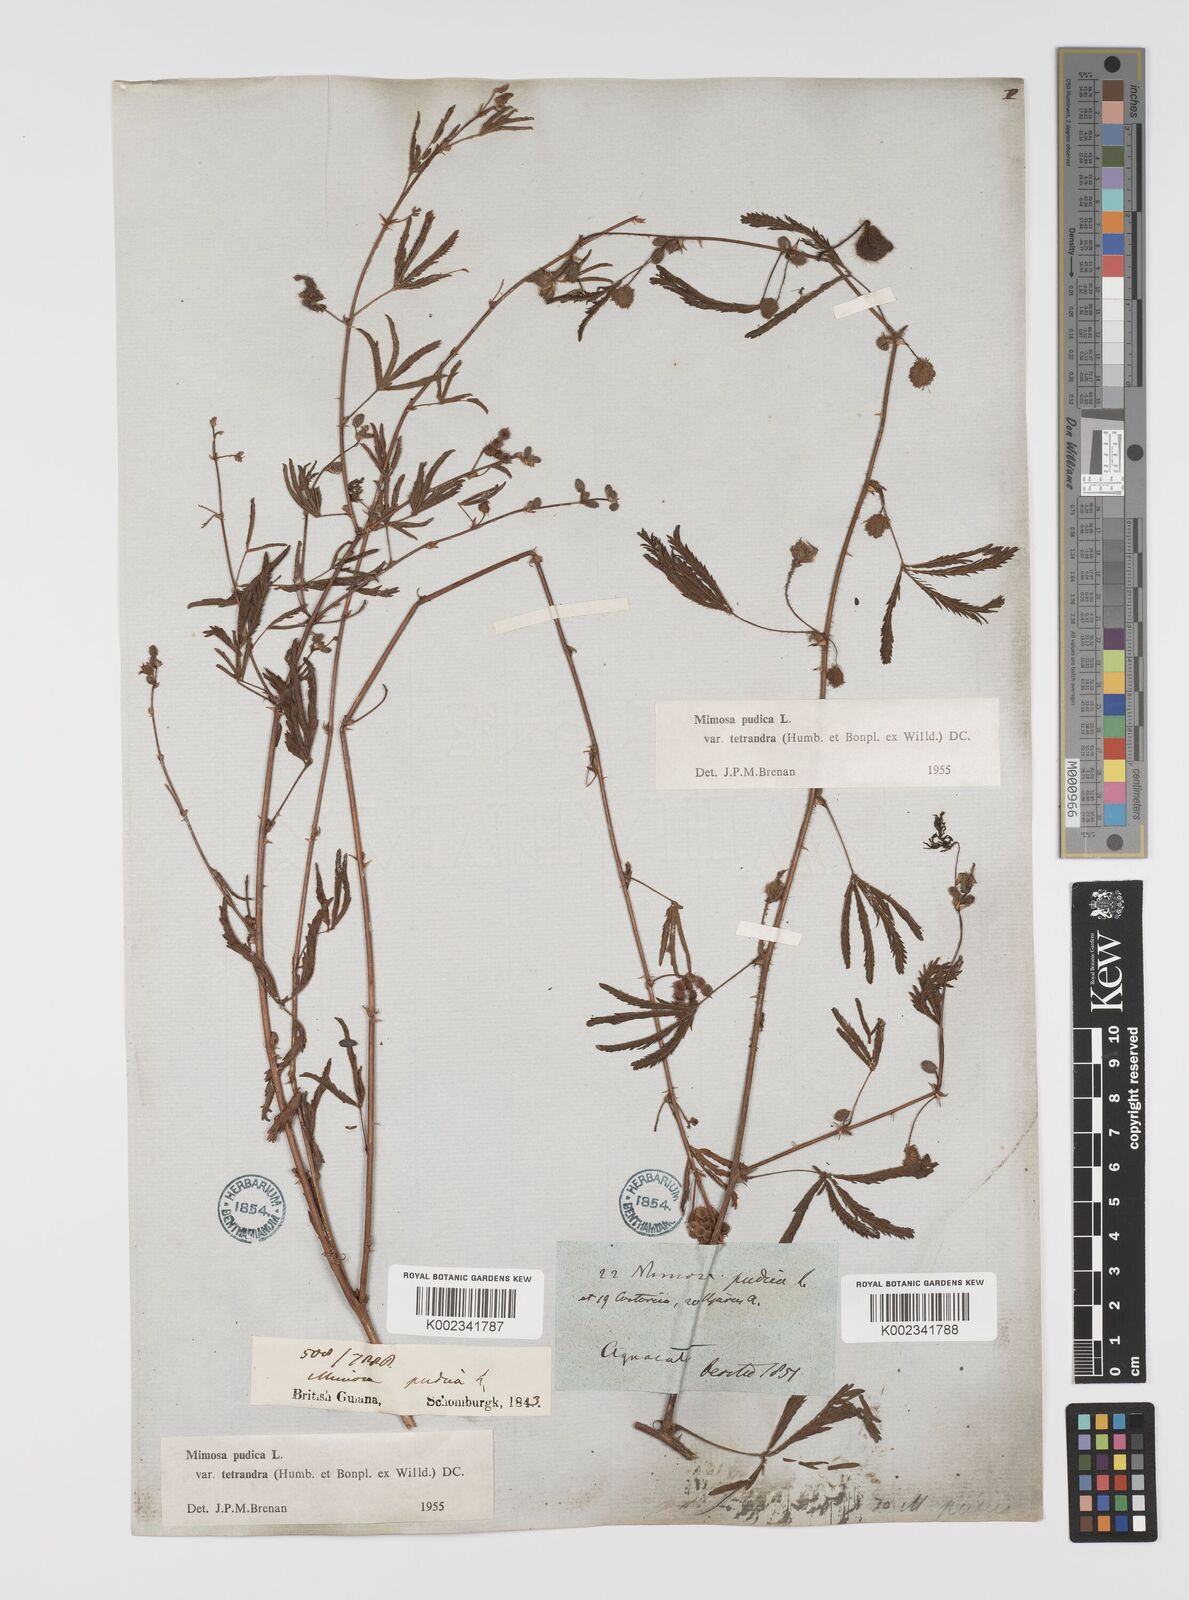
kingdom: Plantae
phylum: Tracheophyta
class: Magnoliopsida
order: Fabales
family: Fabaceae
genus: Mimosa
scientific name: Mimosa pudica
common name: Sensitive plant
